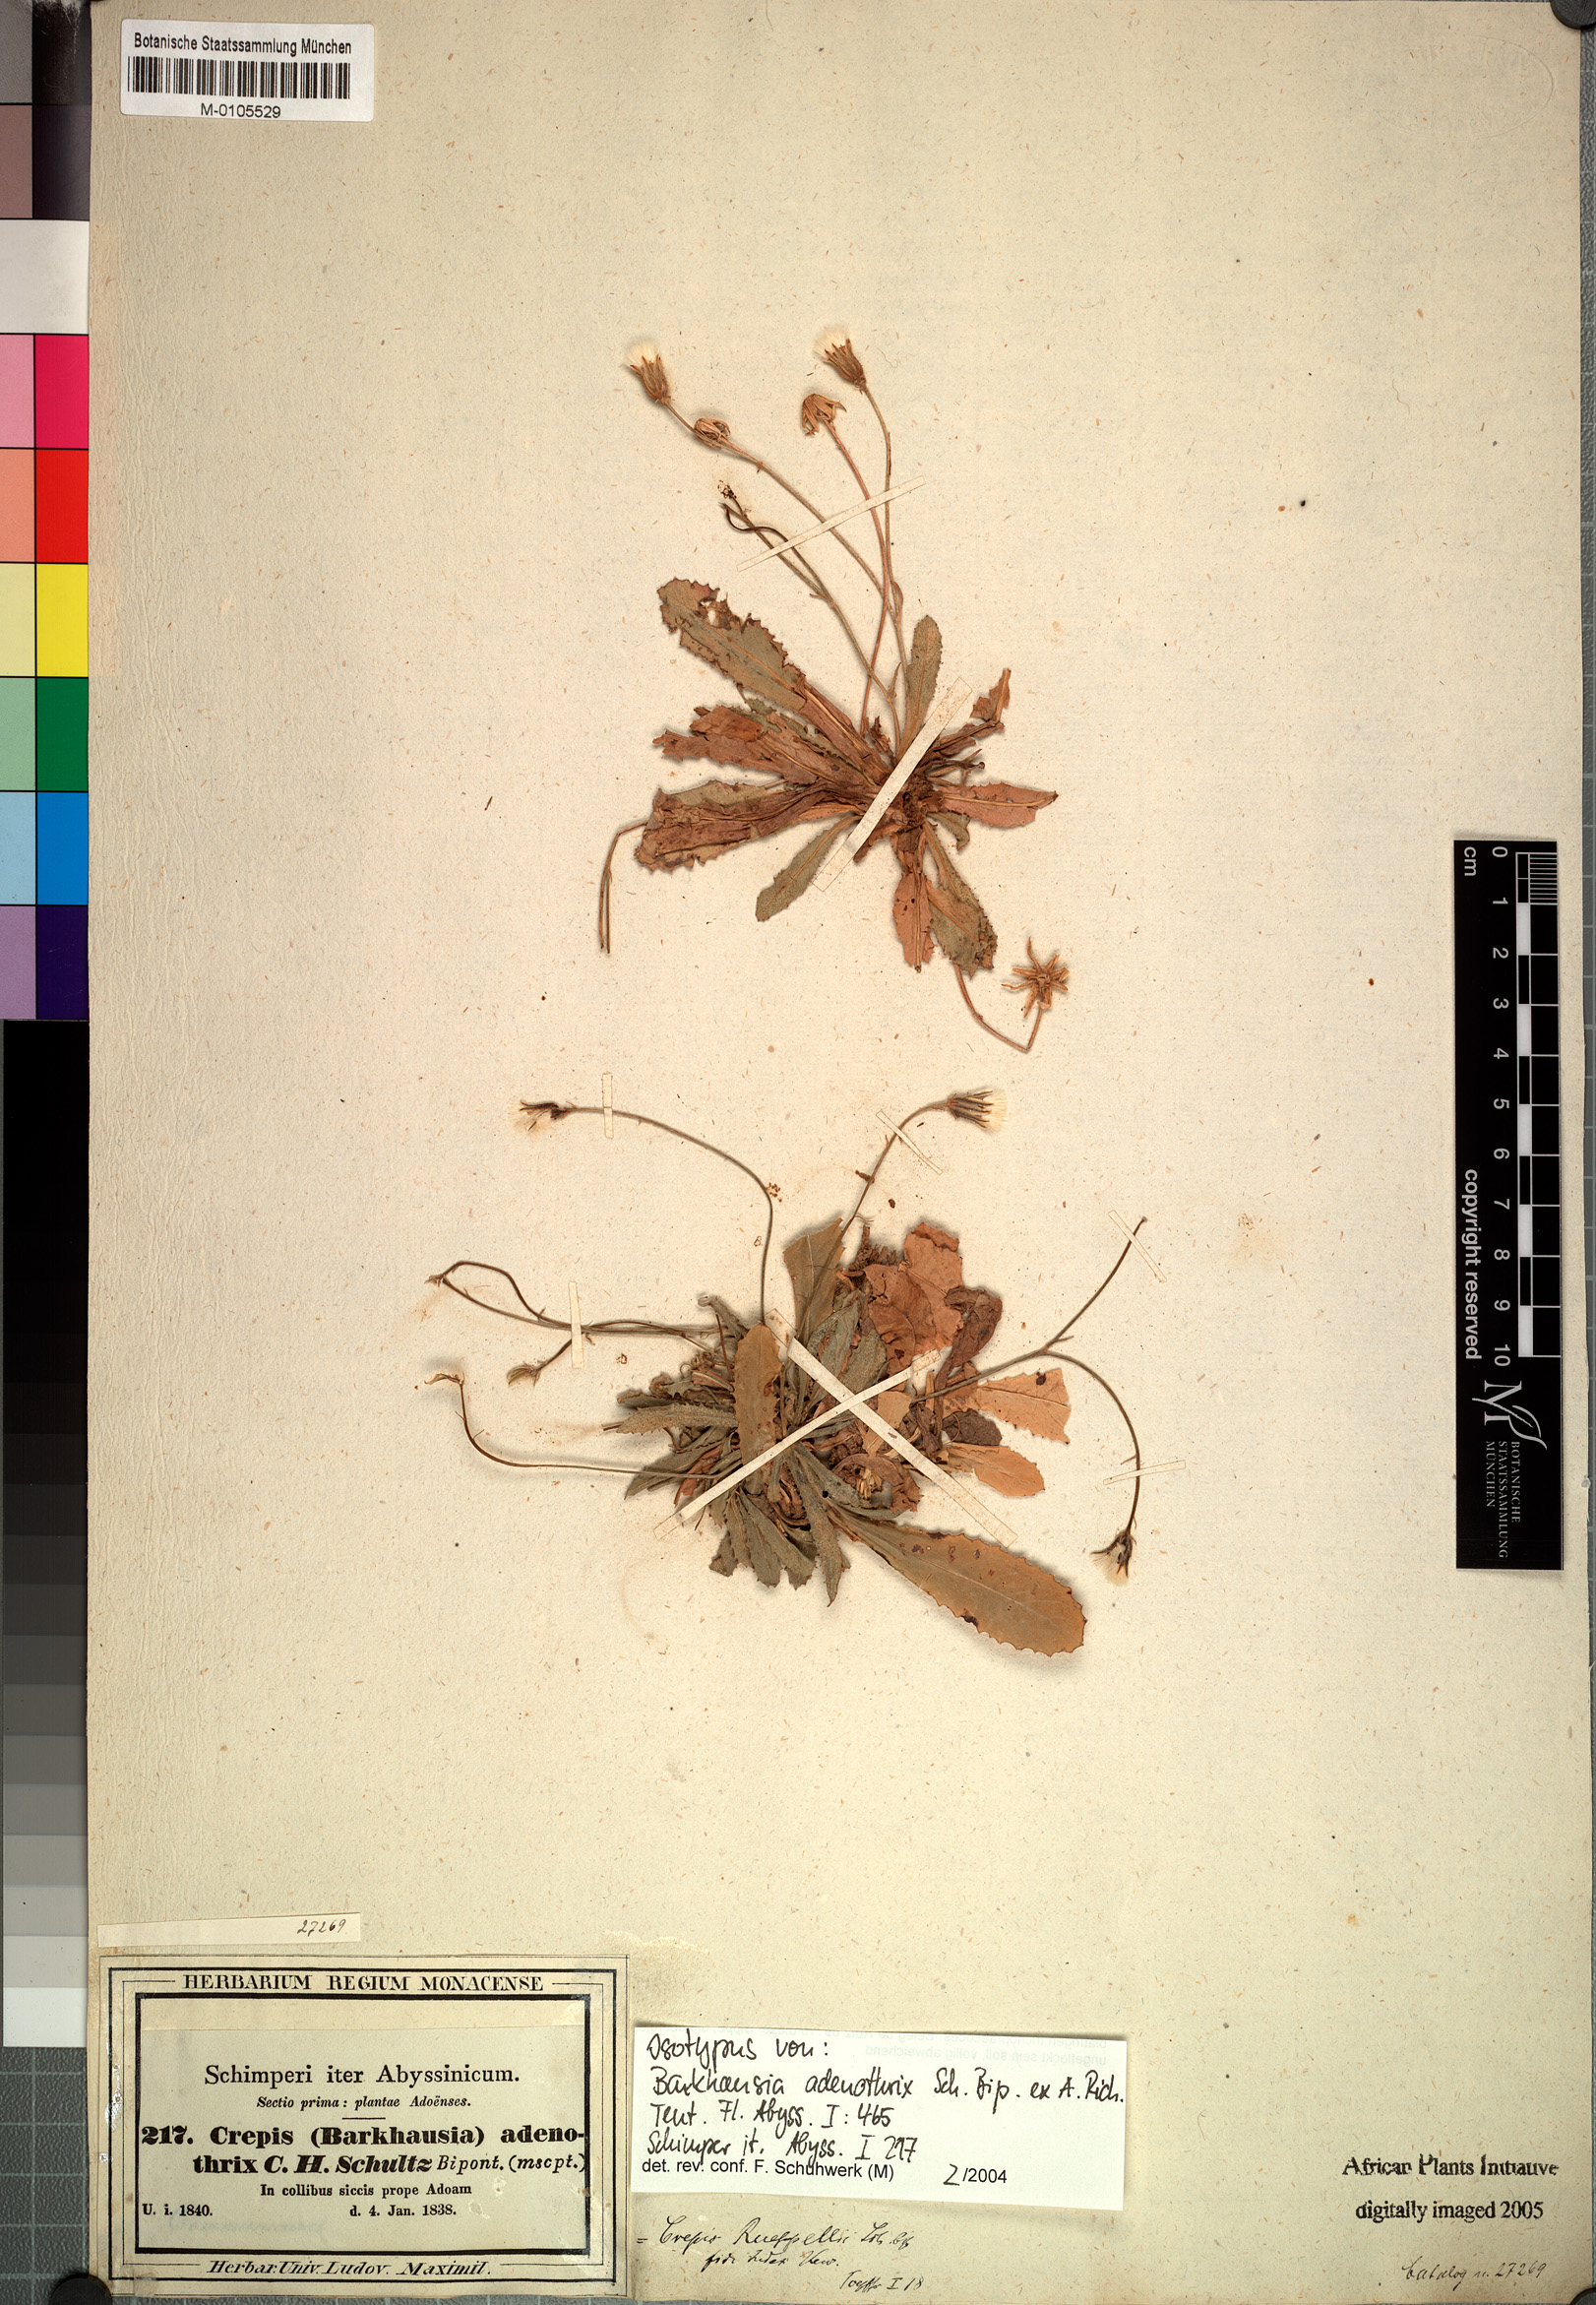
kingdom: Plantae
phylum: Tracheophyta
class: Magnoliopsida
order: Asterales
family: Asteraceae
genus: Crepis
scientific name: Crepis rueppellii
